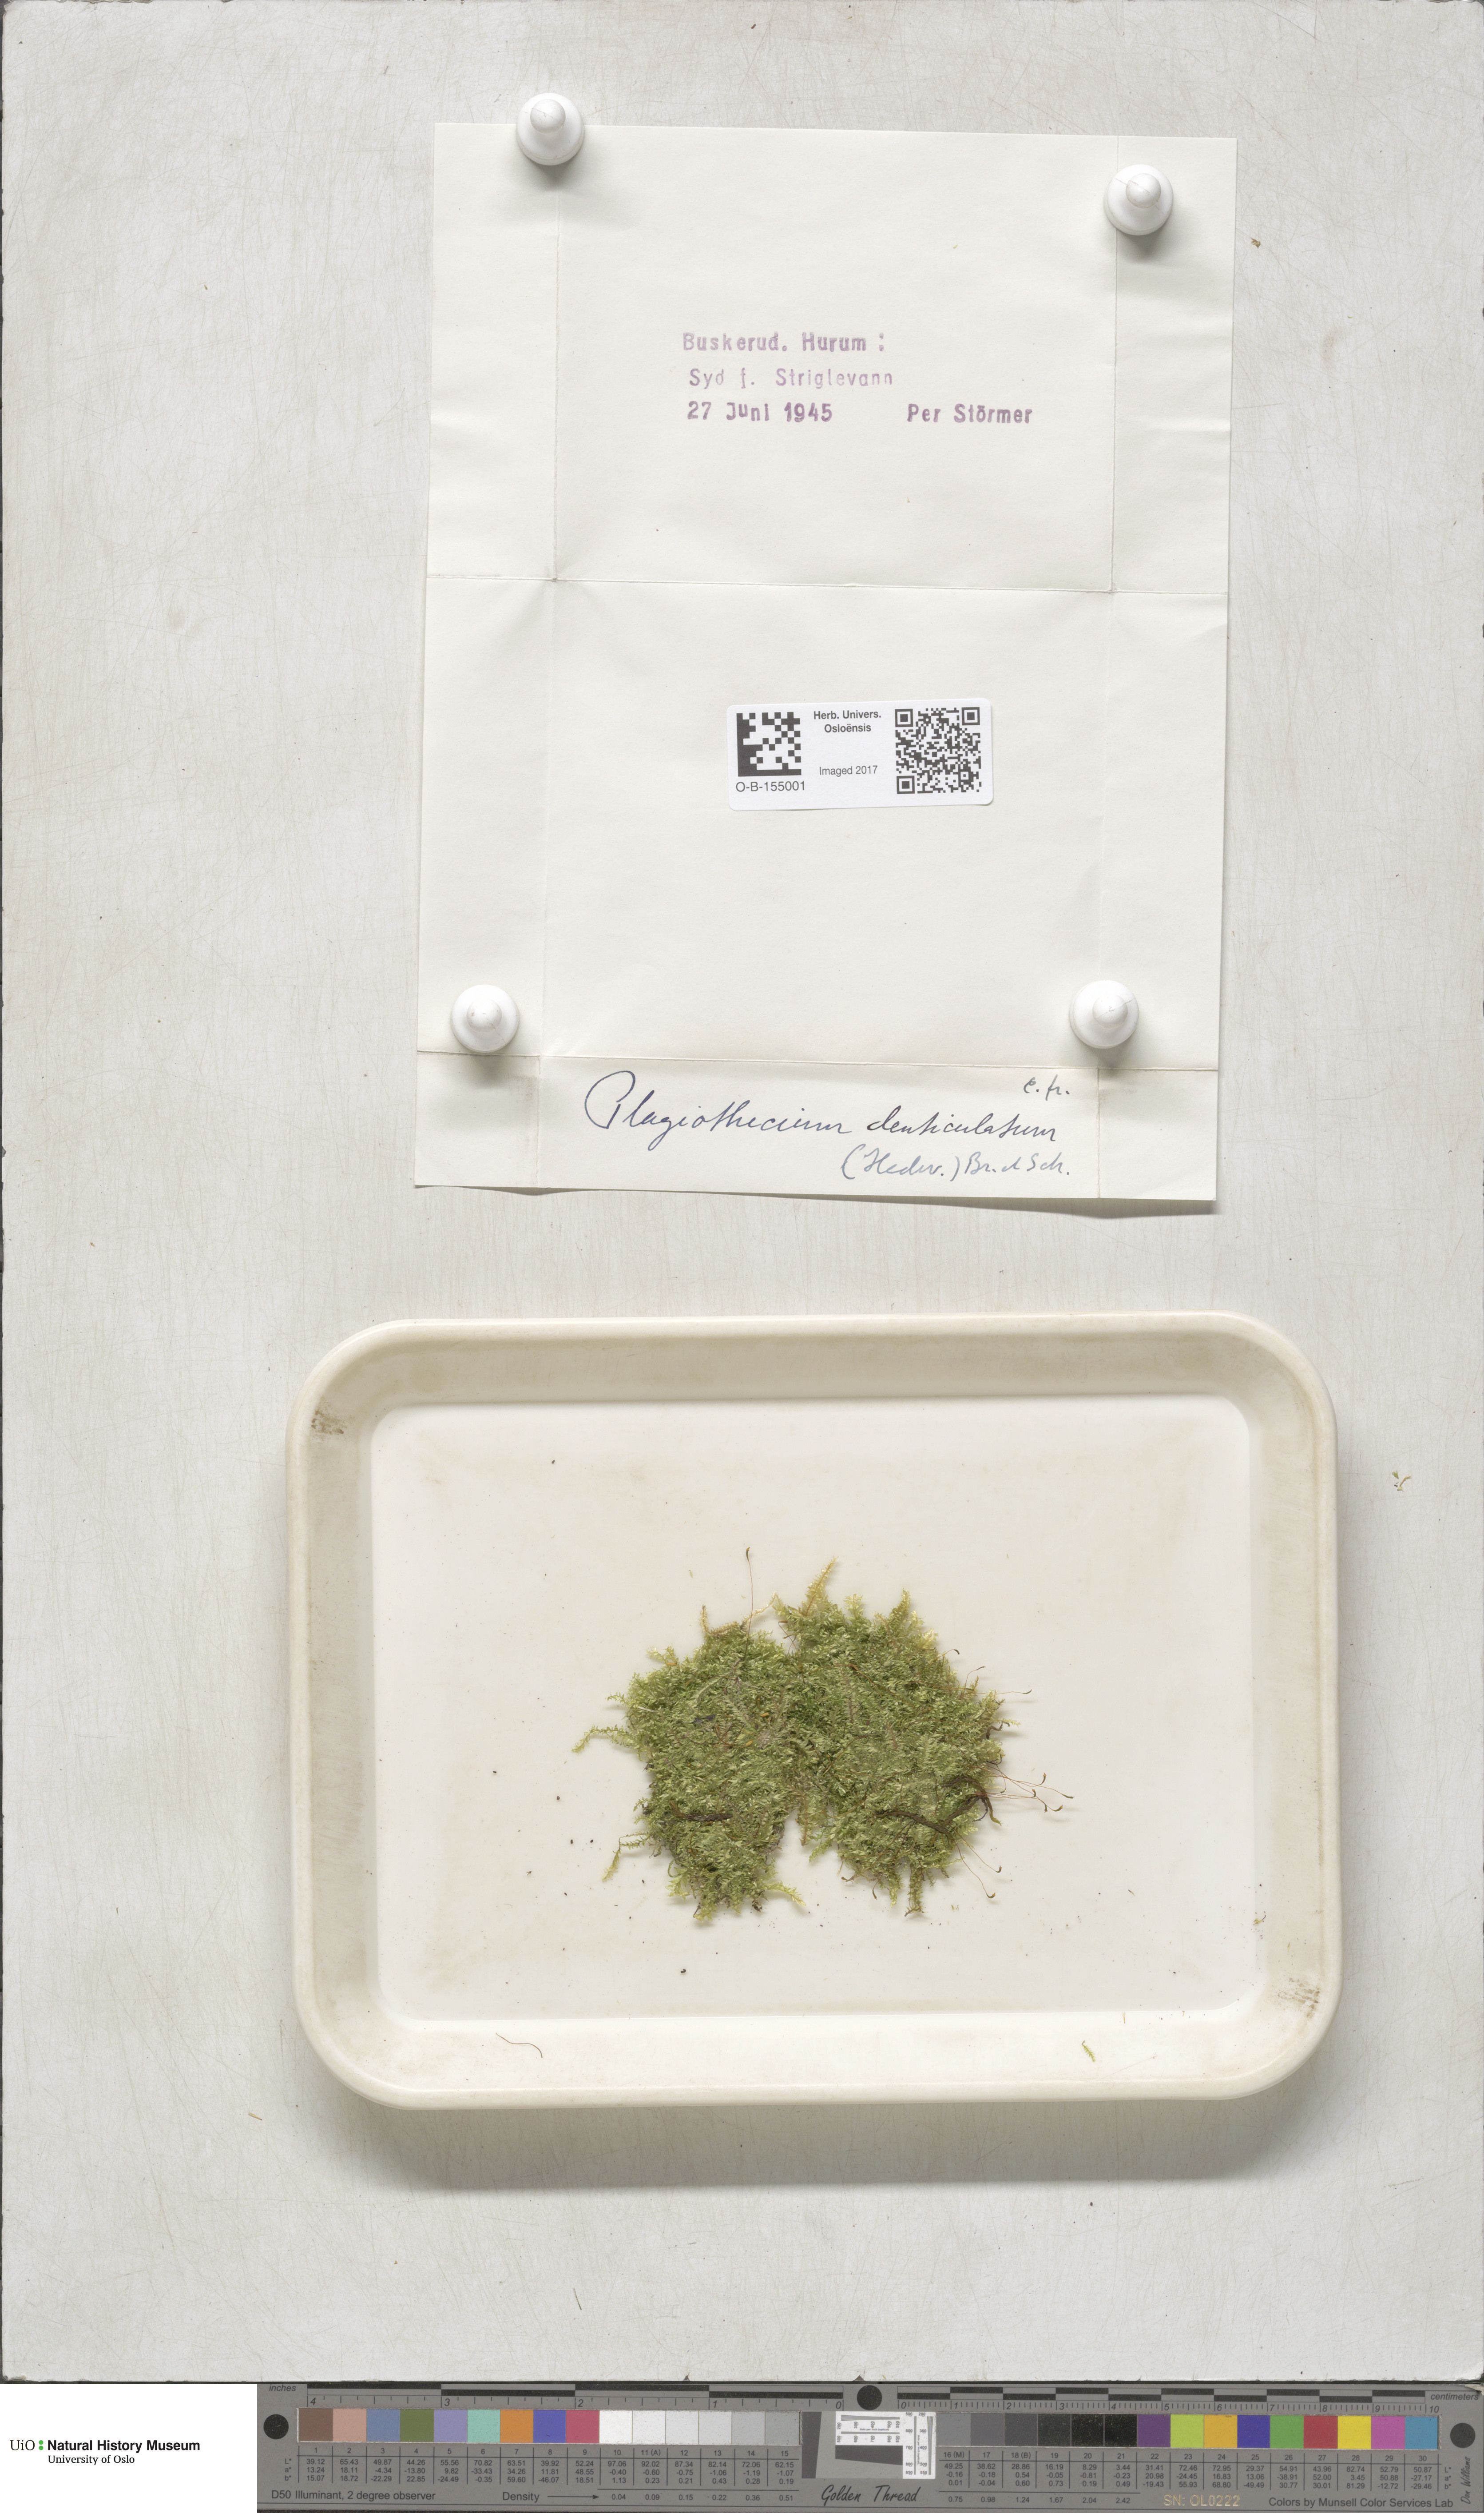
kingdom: Plantae
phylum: Bryophyta
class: Bryopsida
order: Hypnales
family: Plagiotheciaceae
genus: Plagiothecium
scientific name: Plagiothecium denticulatum
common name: Dented silk moss
